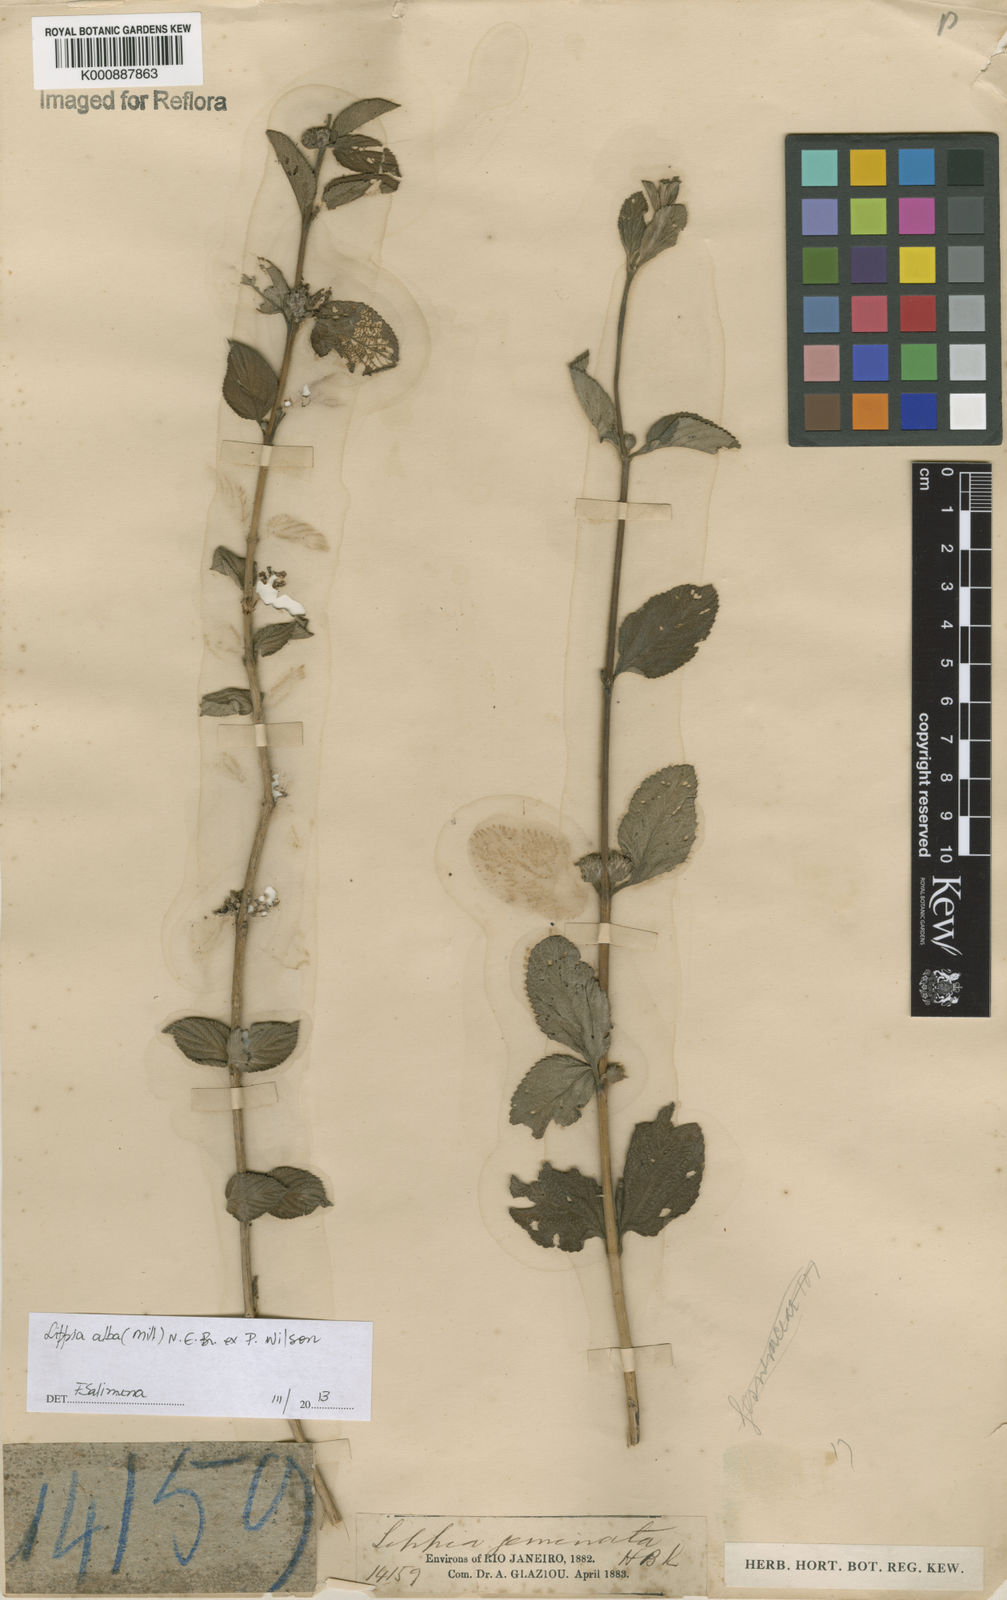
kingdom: Plantae
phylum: Tracheophyta
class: Magnoliopsida
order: Lamiales
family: Verbenaceae
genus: Lippia
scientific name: Lippia
